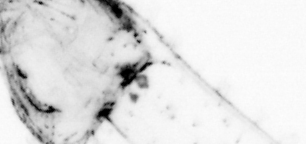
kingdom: Animalia
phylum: Chaetognatha
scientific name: Chaetognatha
